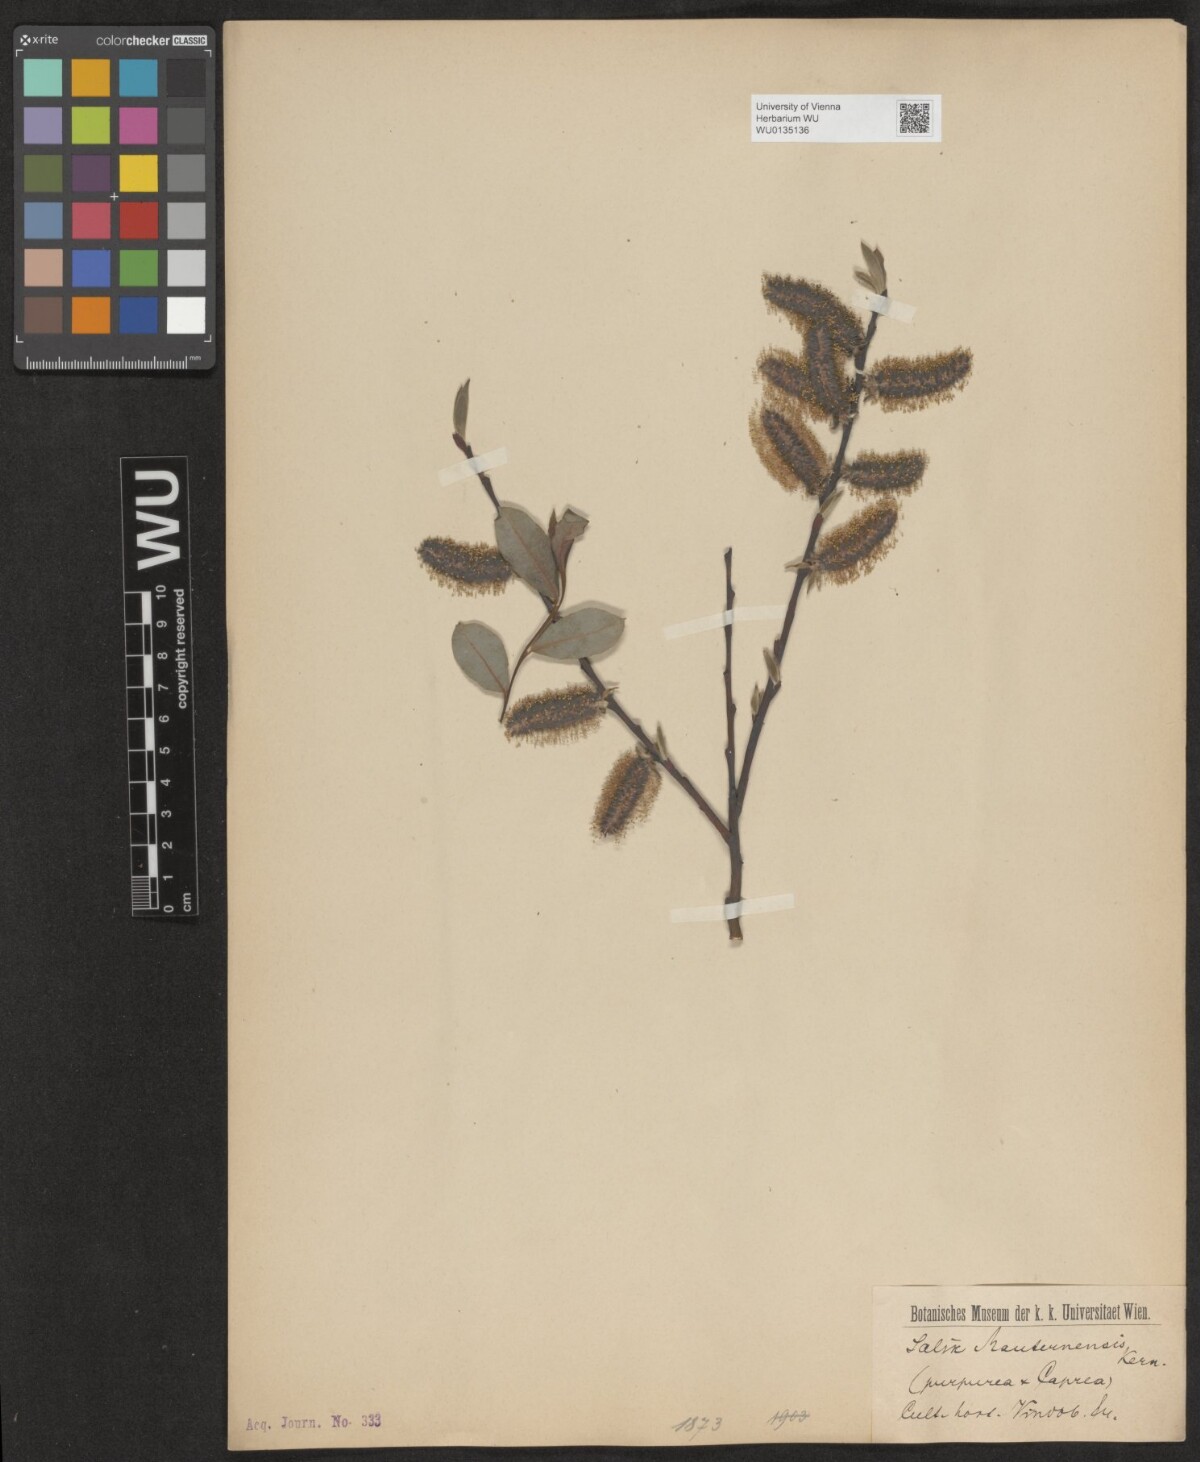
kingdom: Plantae
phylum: Tracheophyta
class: Magnoliopsida
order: Malpighiales
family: Salicaceae
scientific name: Salicaceae
